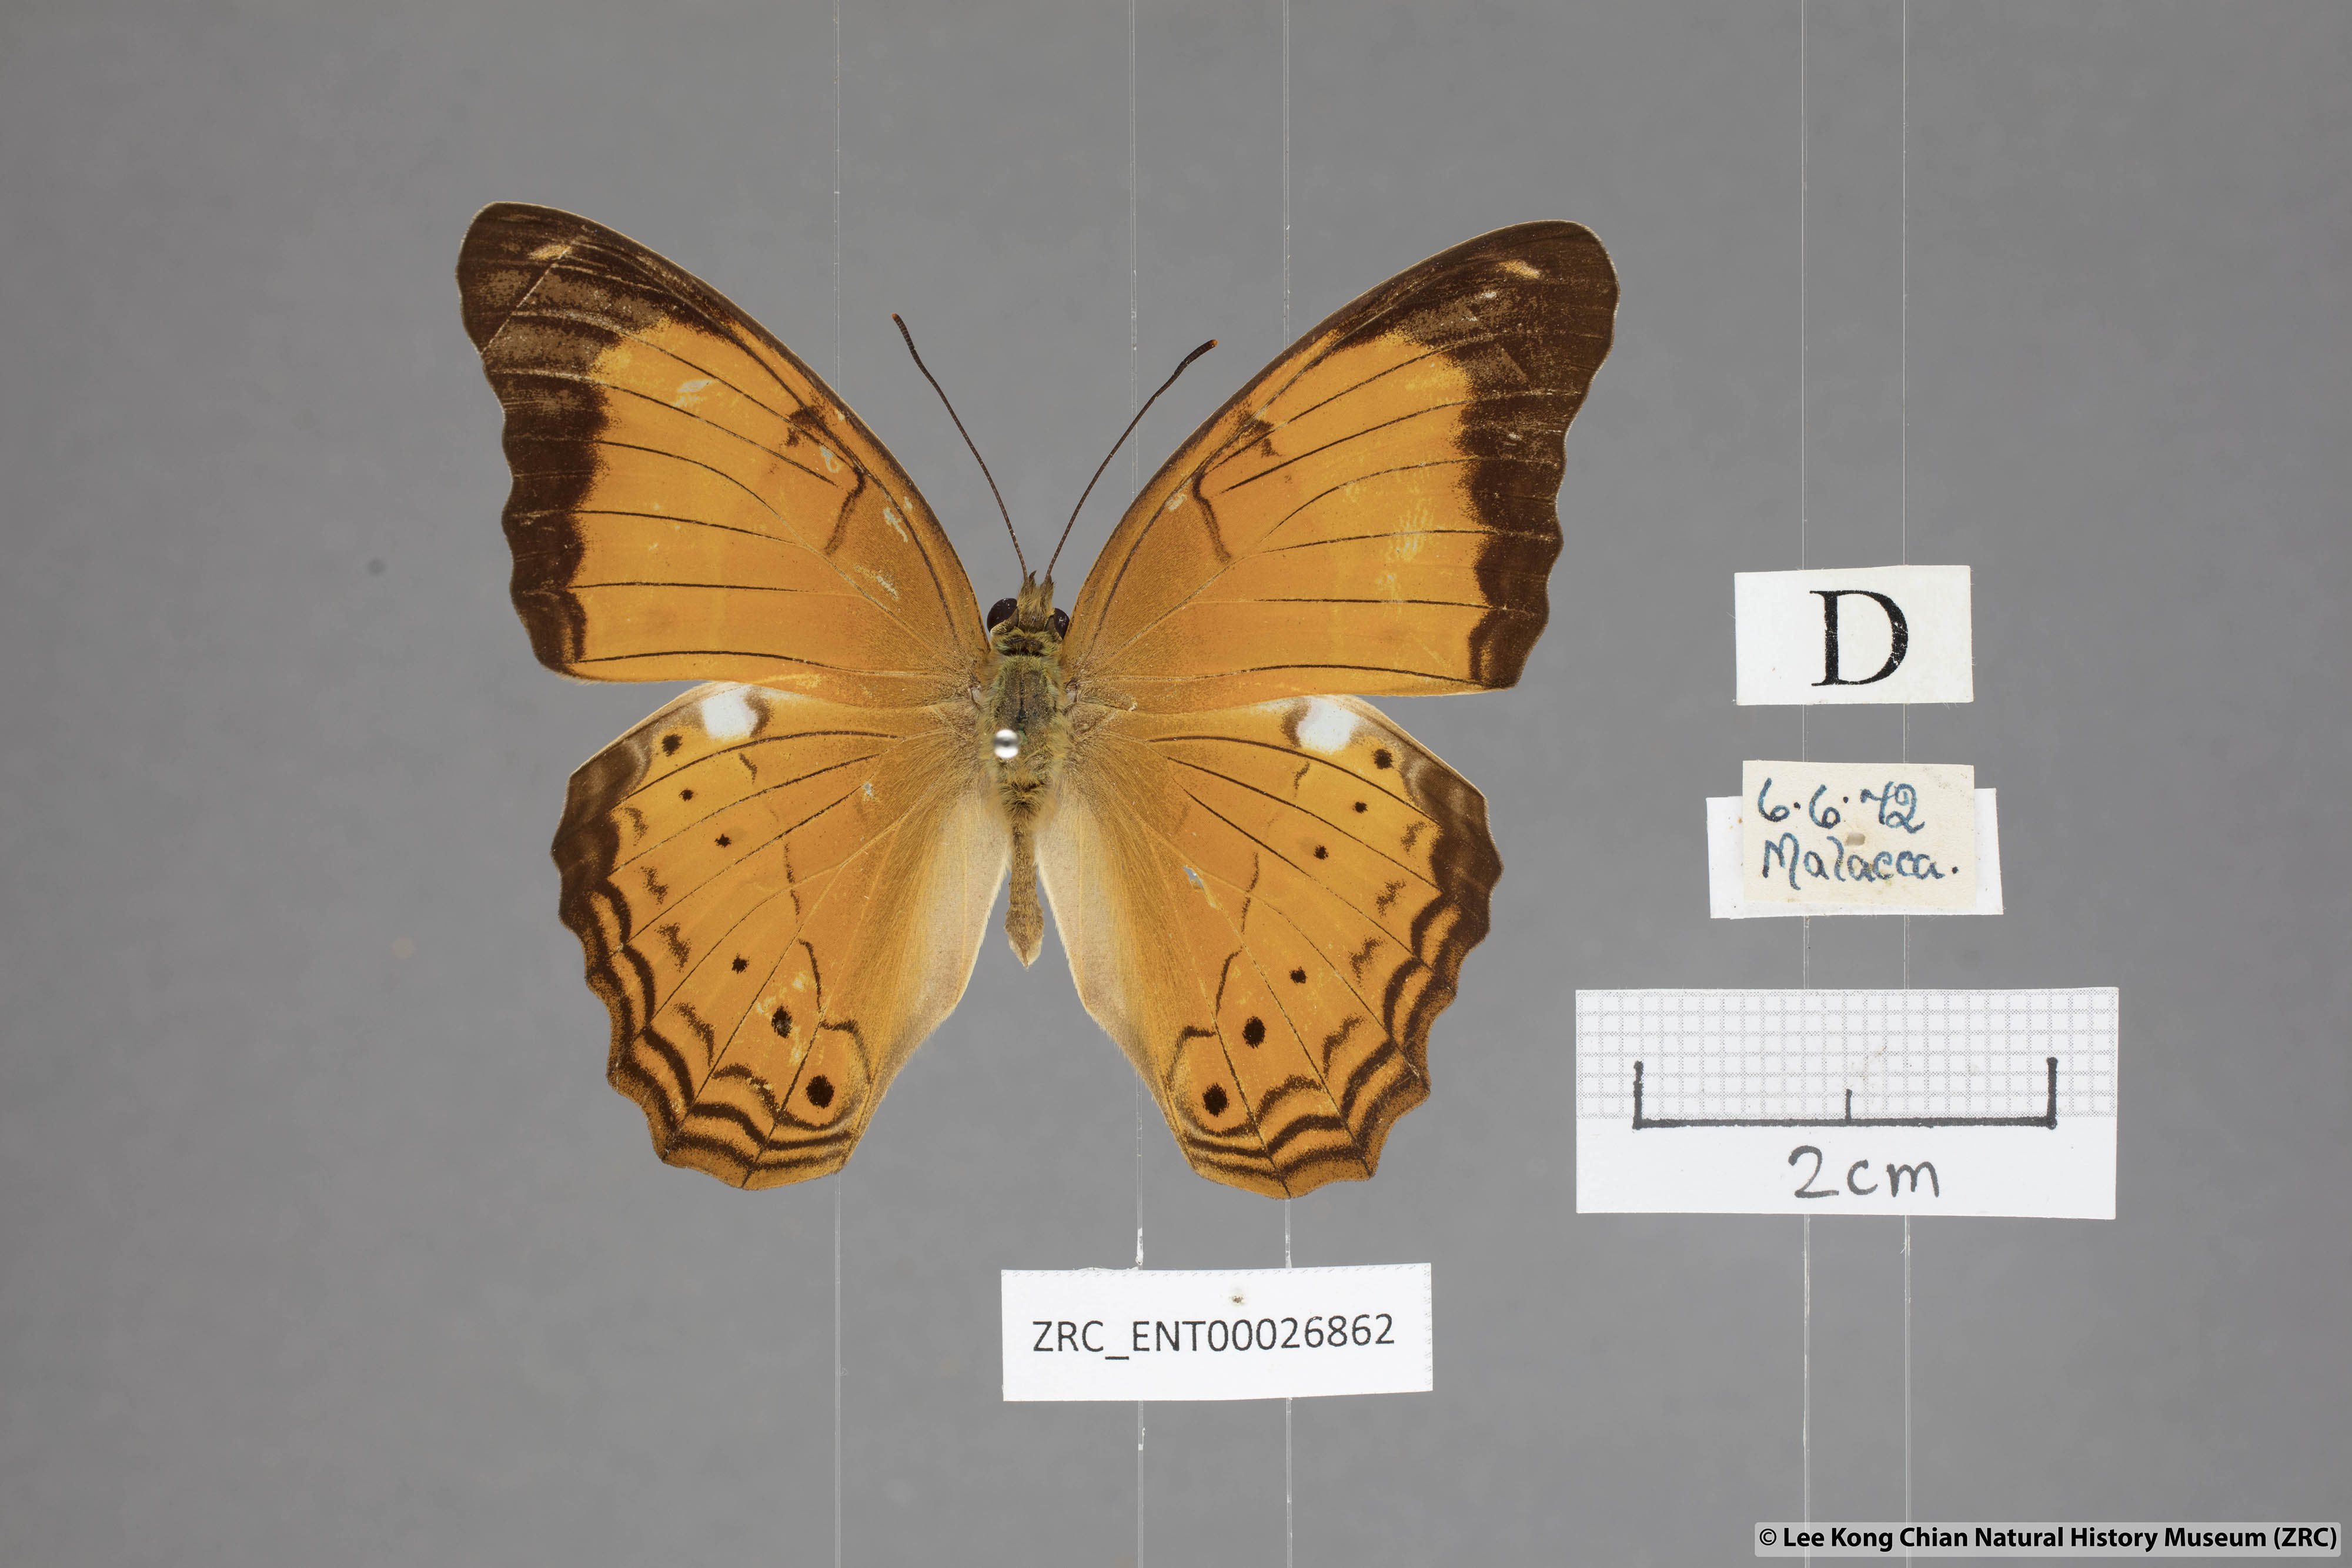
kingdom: Animalia
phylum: Arthropoda
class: Insecta
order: Lepidoptera
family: Nymphalidae
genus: Cirrochroa
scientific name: Cirrochroa emalea
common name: Malay yeoman
